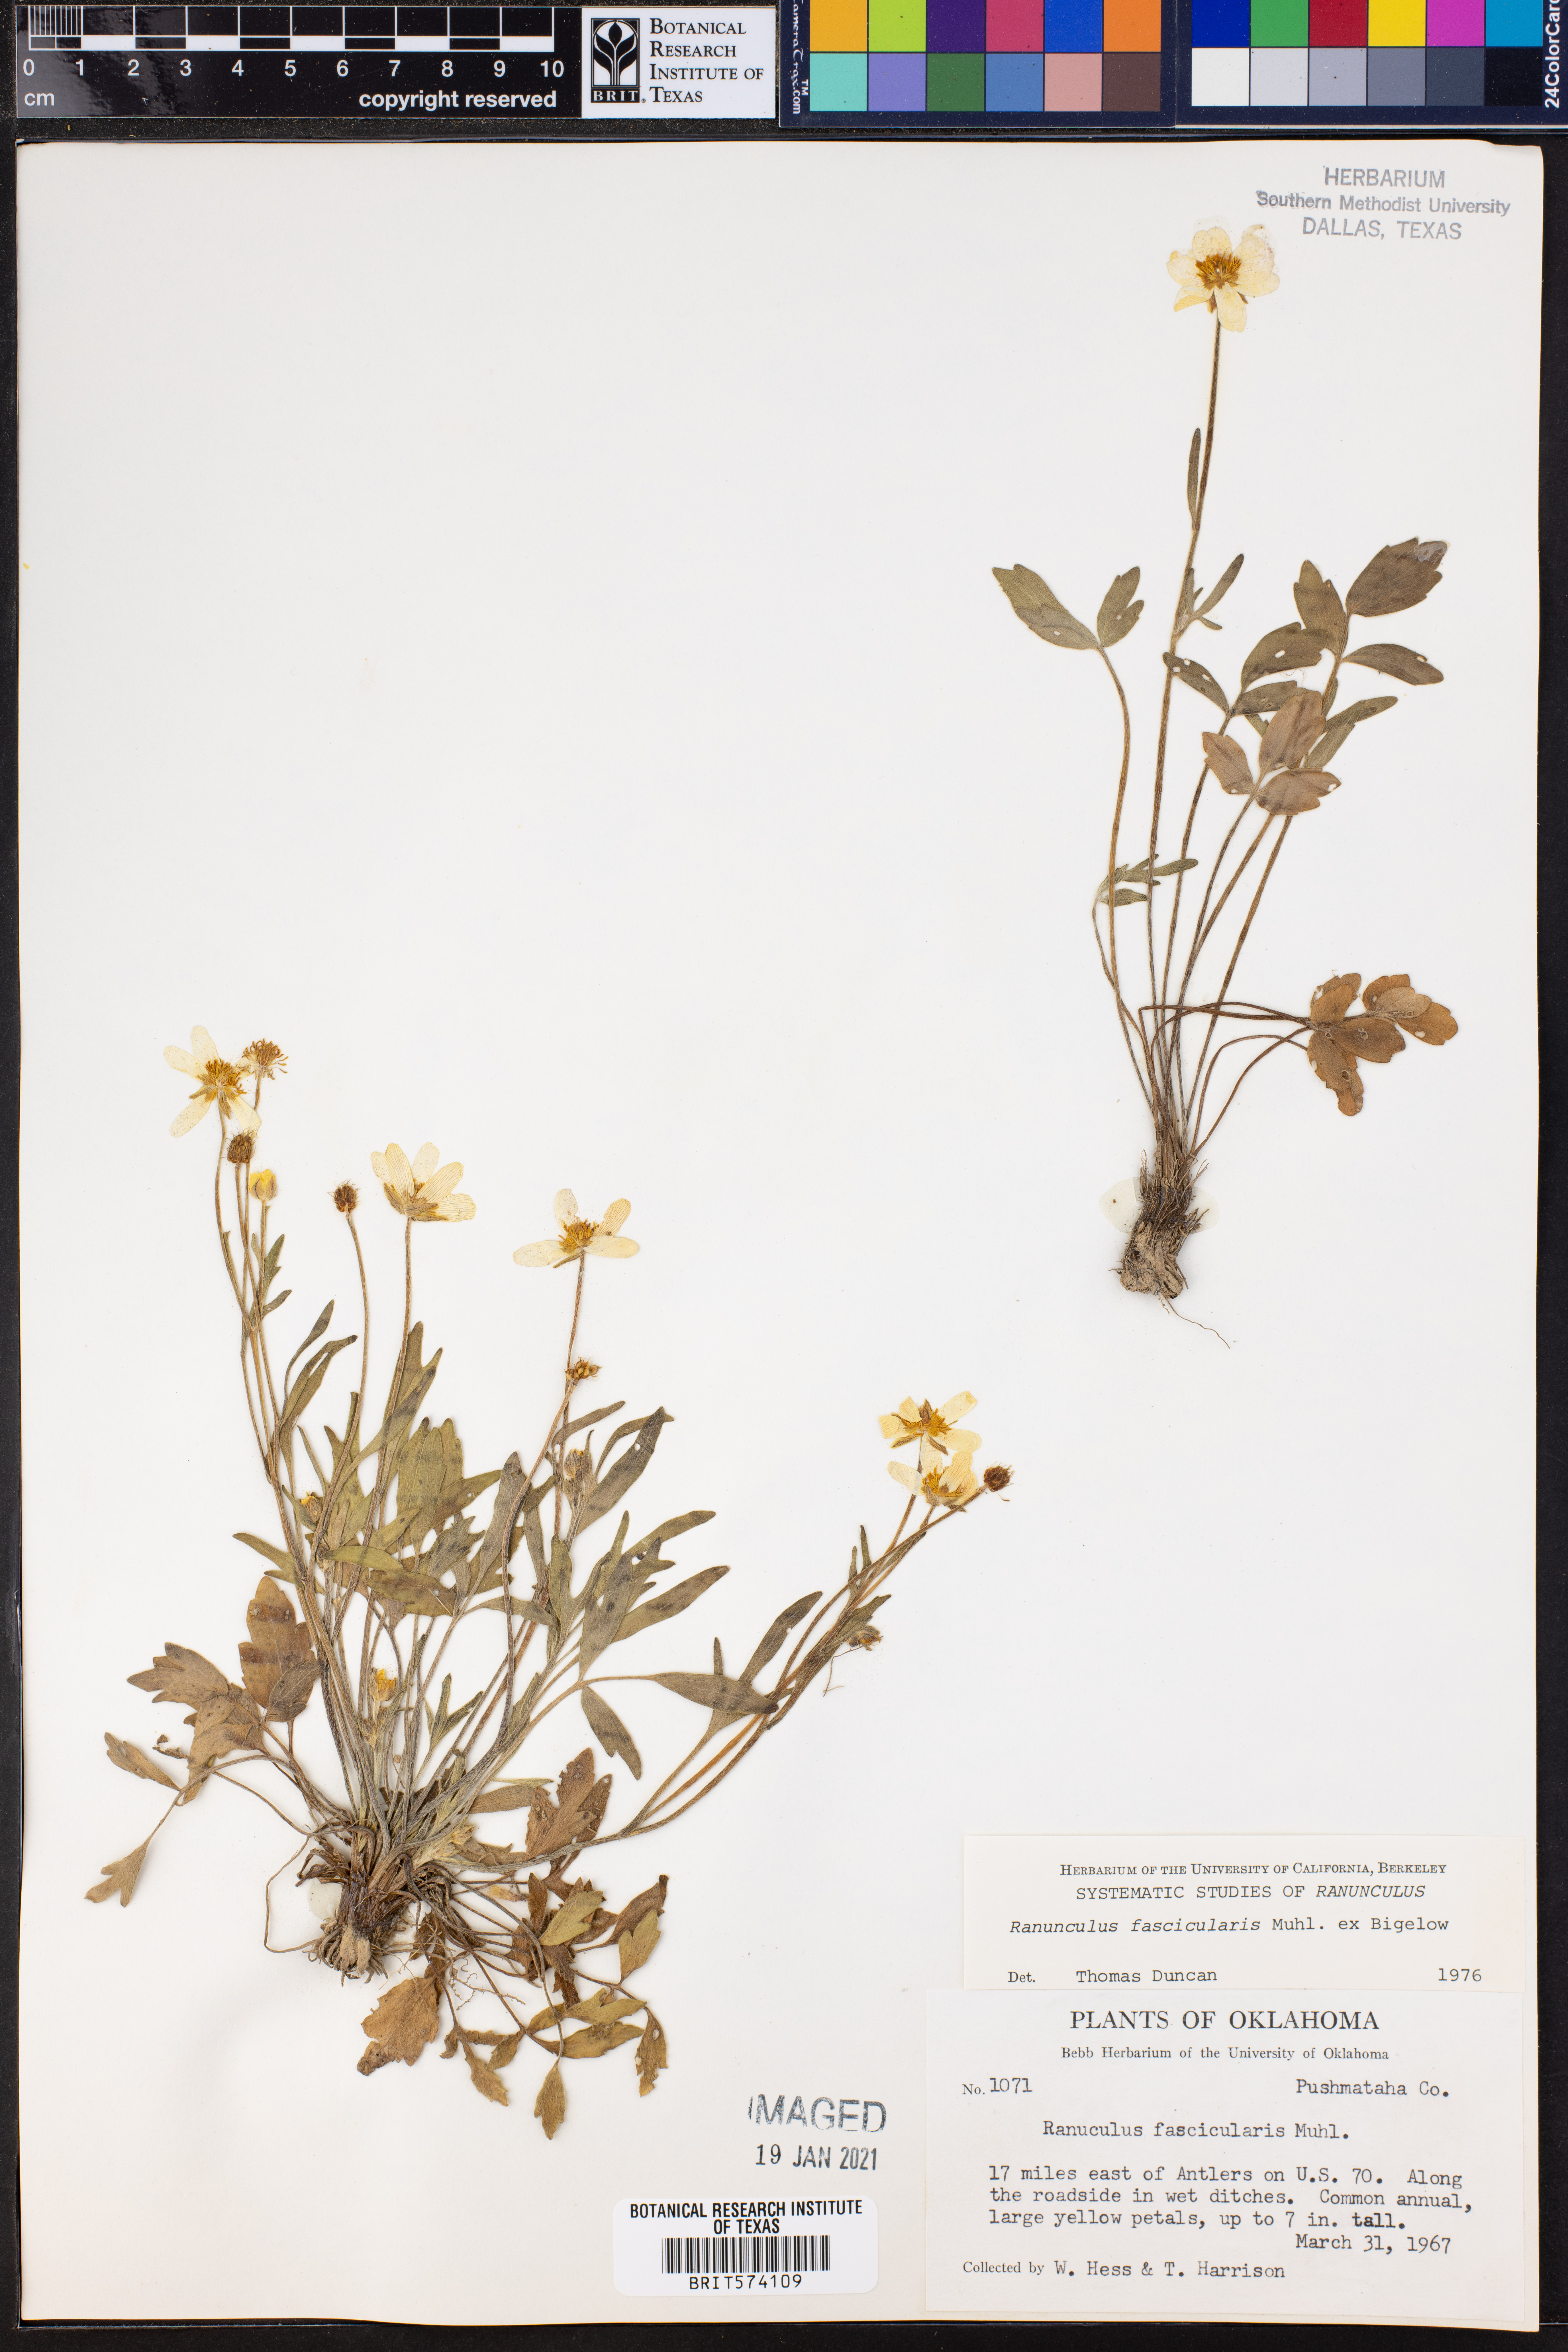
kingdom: Plantae
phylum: Tracheophyta
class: Magnoliopsida
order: Ranunculales
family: Ranunculaceae
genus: Ranunculus
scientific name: Ranunculus fascicularis
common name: Early buttercup
